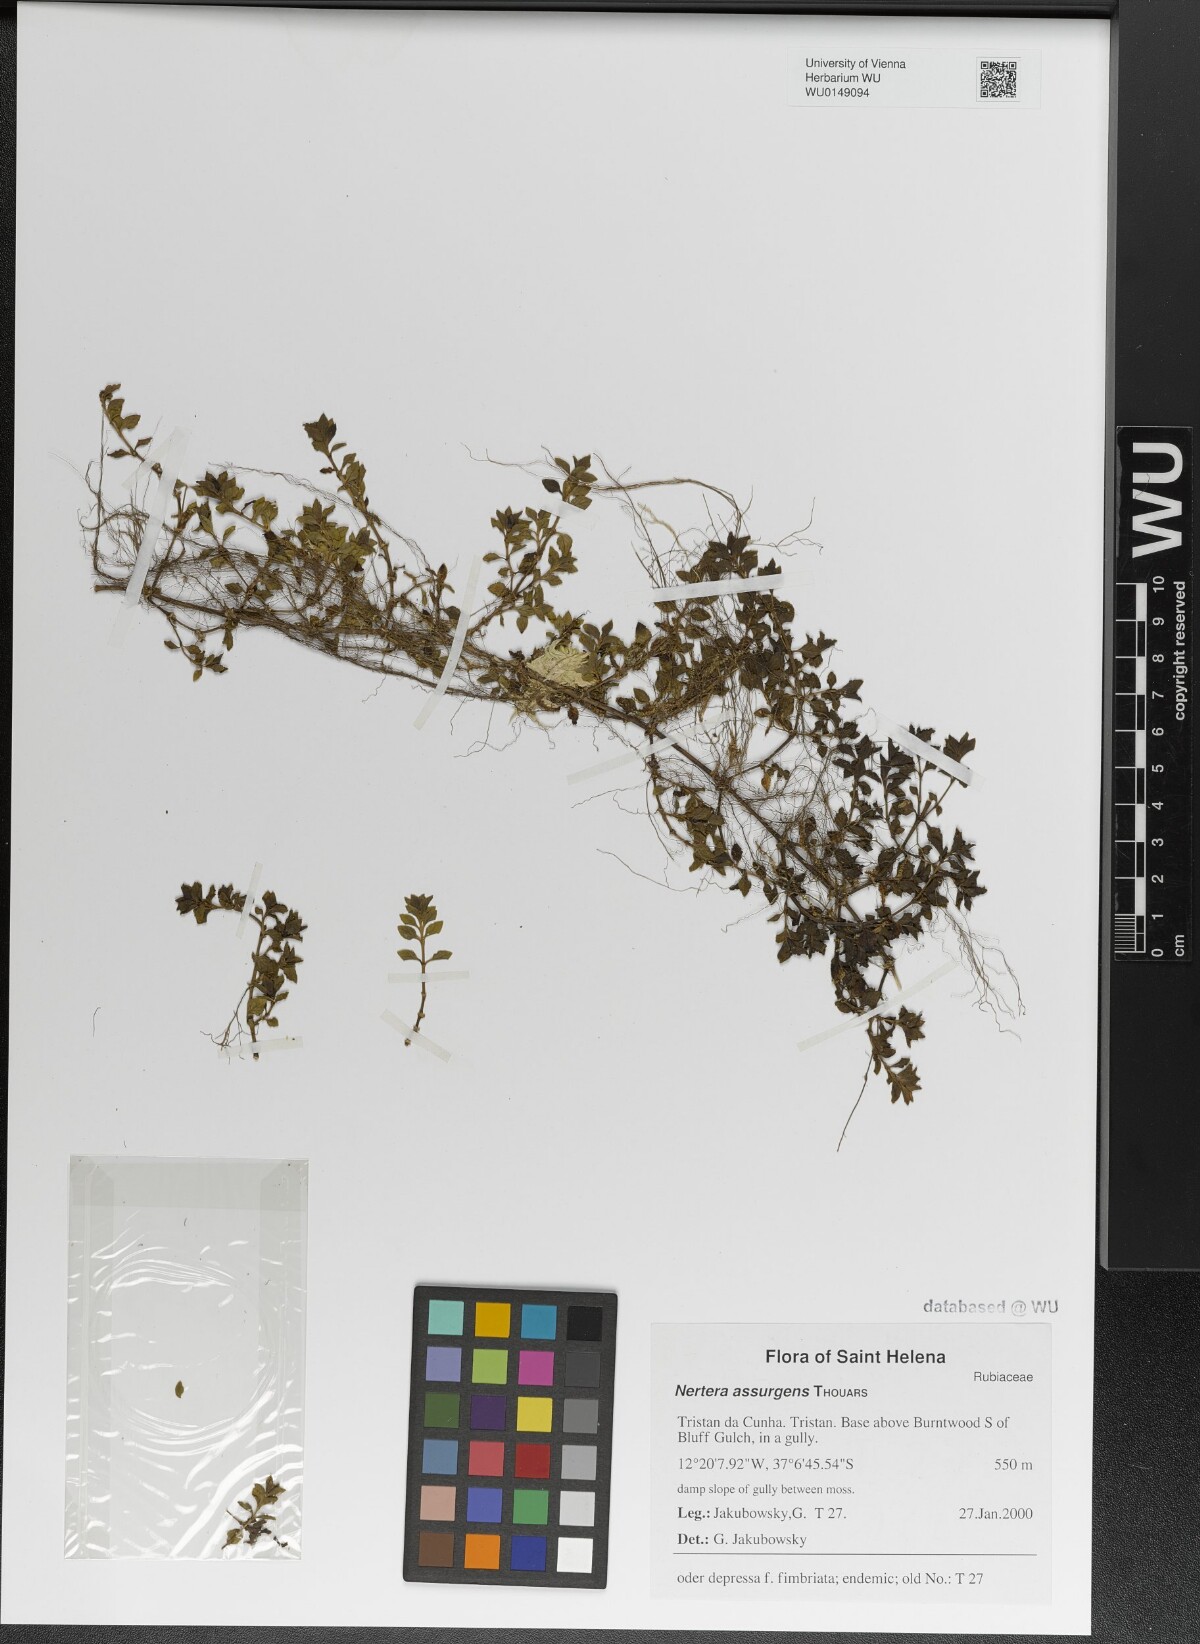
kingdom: Plantae
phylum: Tracheophyta
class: Magnoliopsida
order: Gentianales
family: Rubiaceae
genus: Nertera
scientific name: Nertera granadensis
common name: Beadplant
